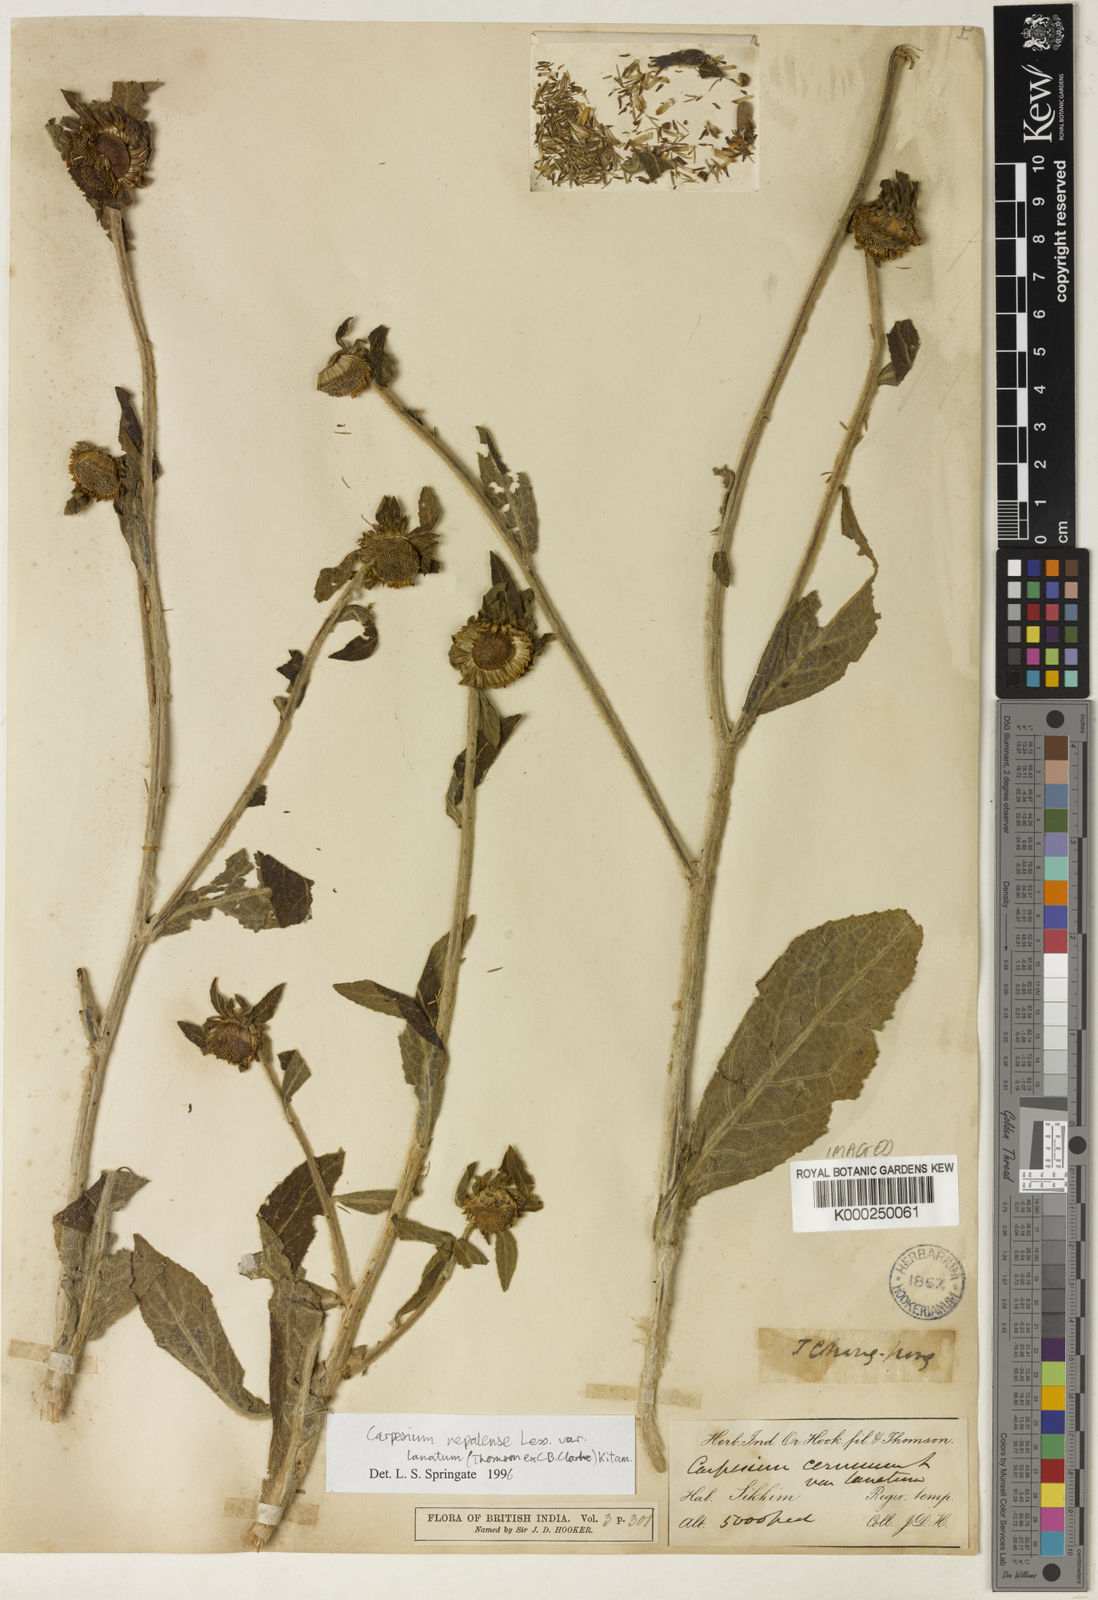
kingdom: Plantae
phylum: Tracheophyta
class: Magnoliopsida
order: Asterales
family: Asteraceae
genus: Carpesium
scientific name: Carpesium cernuum
